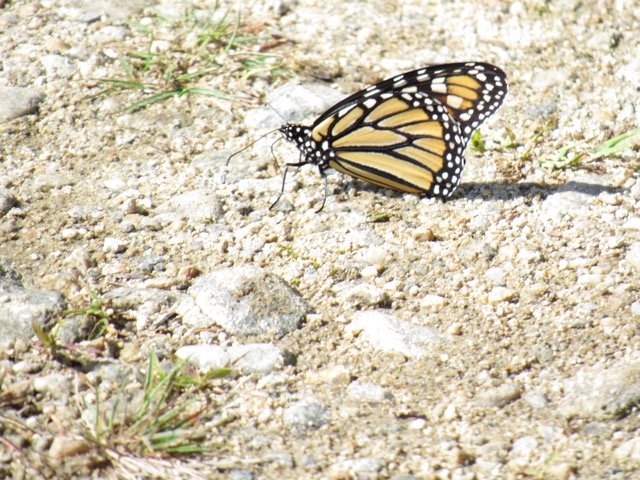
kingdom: Animalia
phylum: Arthropoda
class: Insecta
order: Lepidoptera
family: Nymphalidae
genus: Danaus
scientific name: Danaus plexippus
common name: Monarch
